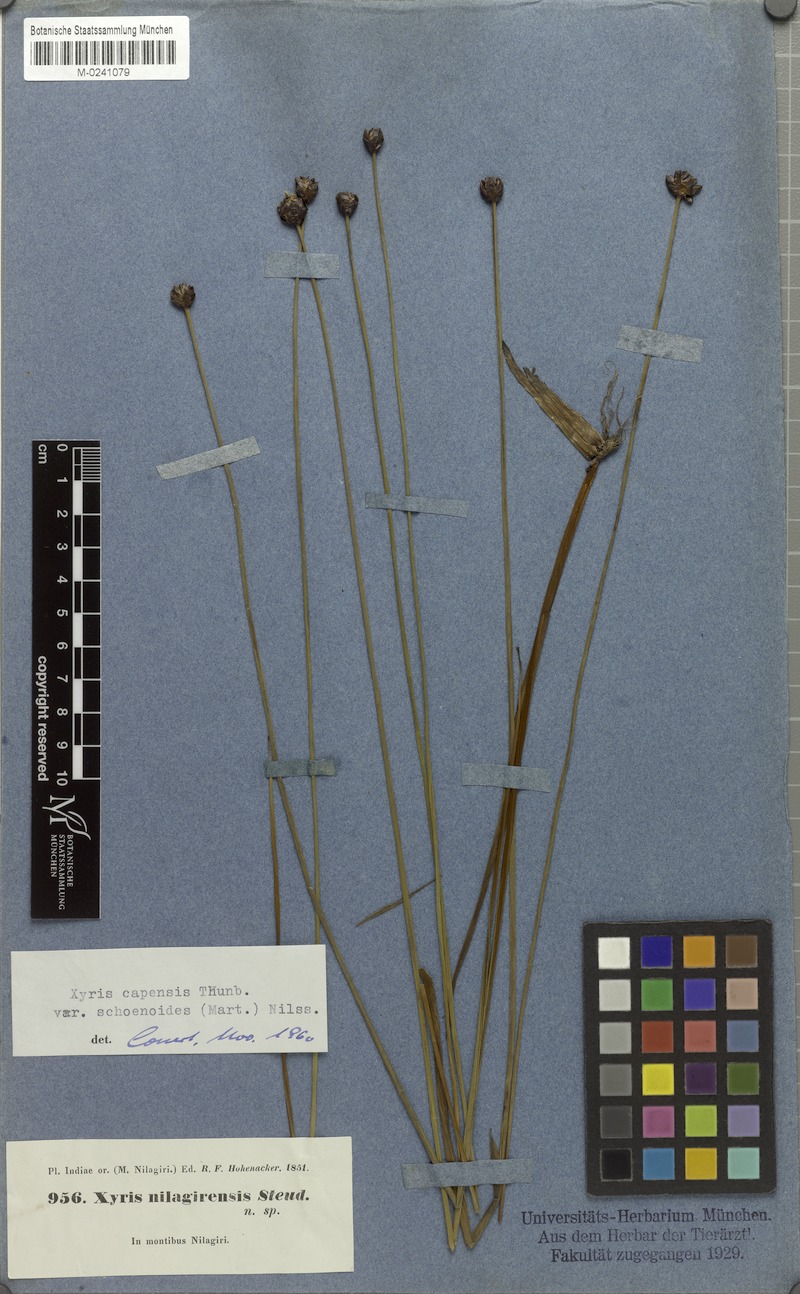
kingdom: Plantae
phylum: Tracheophyta
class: Liliopsida
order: Poales
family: Xyridaceae
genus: Xyris
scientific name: Xyris capensis
